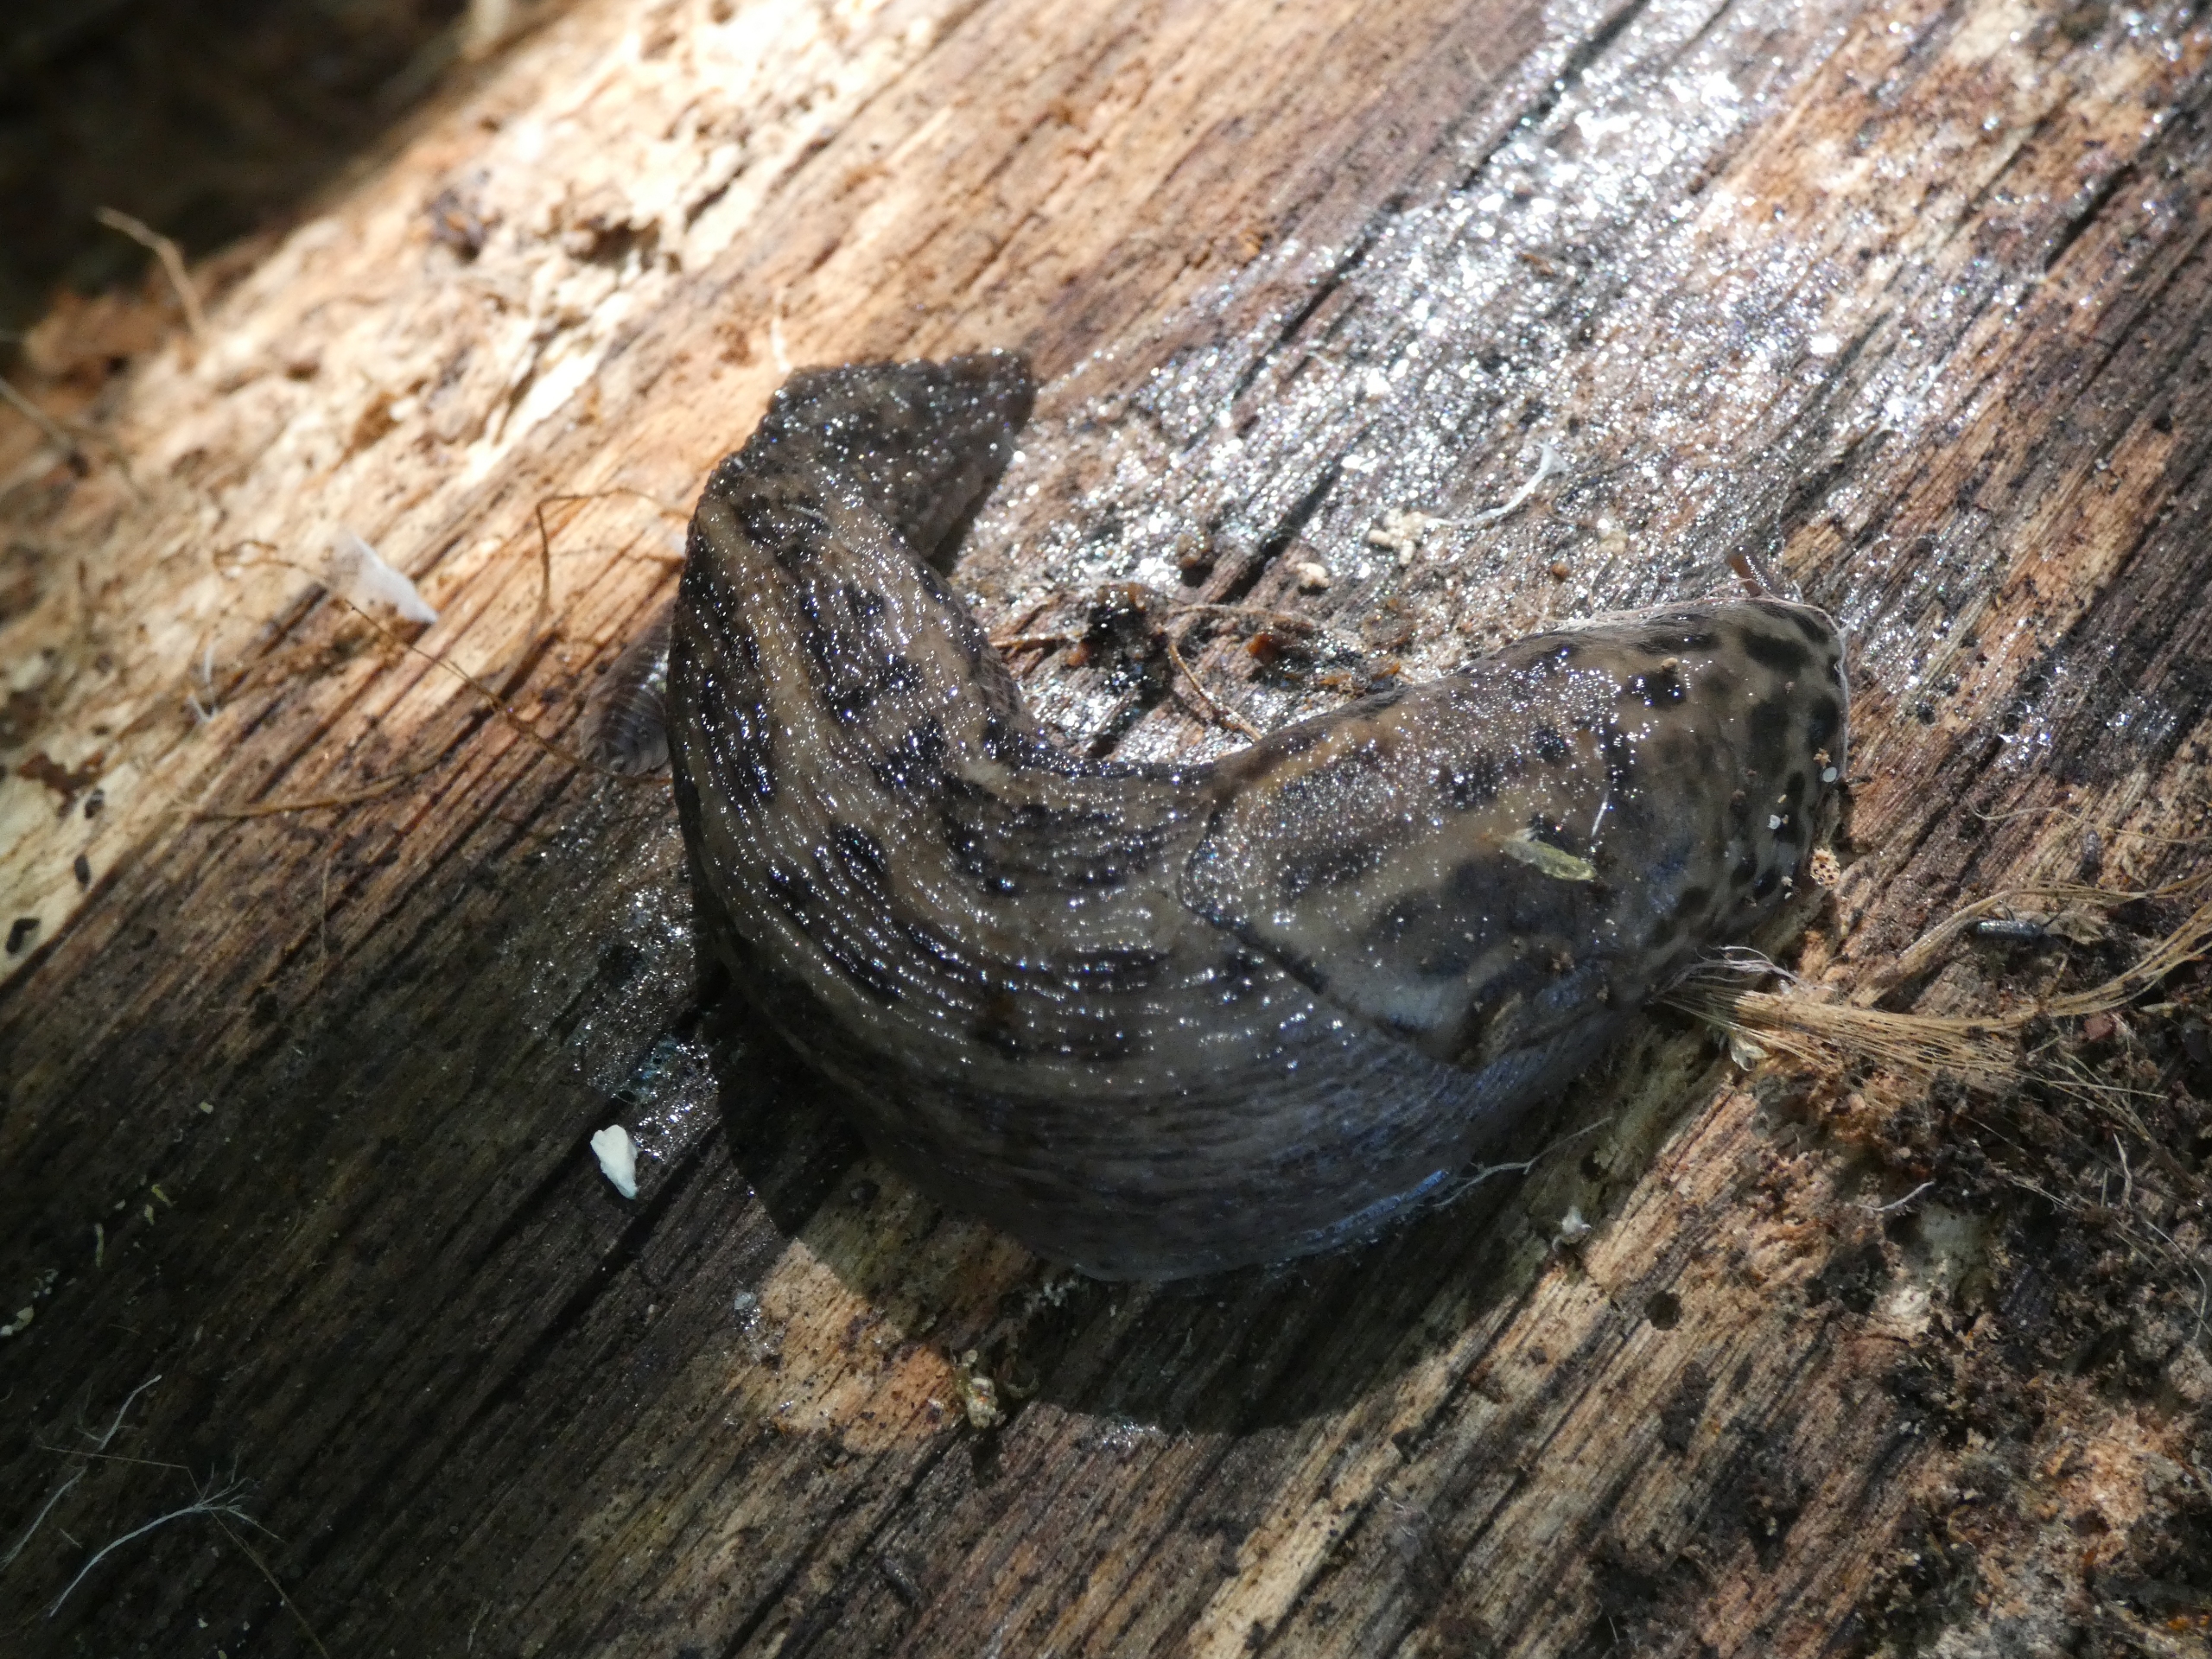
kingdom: Animalia
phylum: Mollusca
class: Gastropoda
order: Stylommatophora
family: Limacidae
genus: Limax
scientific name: Limax maximus
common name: Pantersnegl
